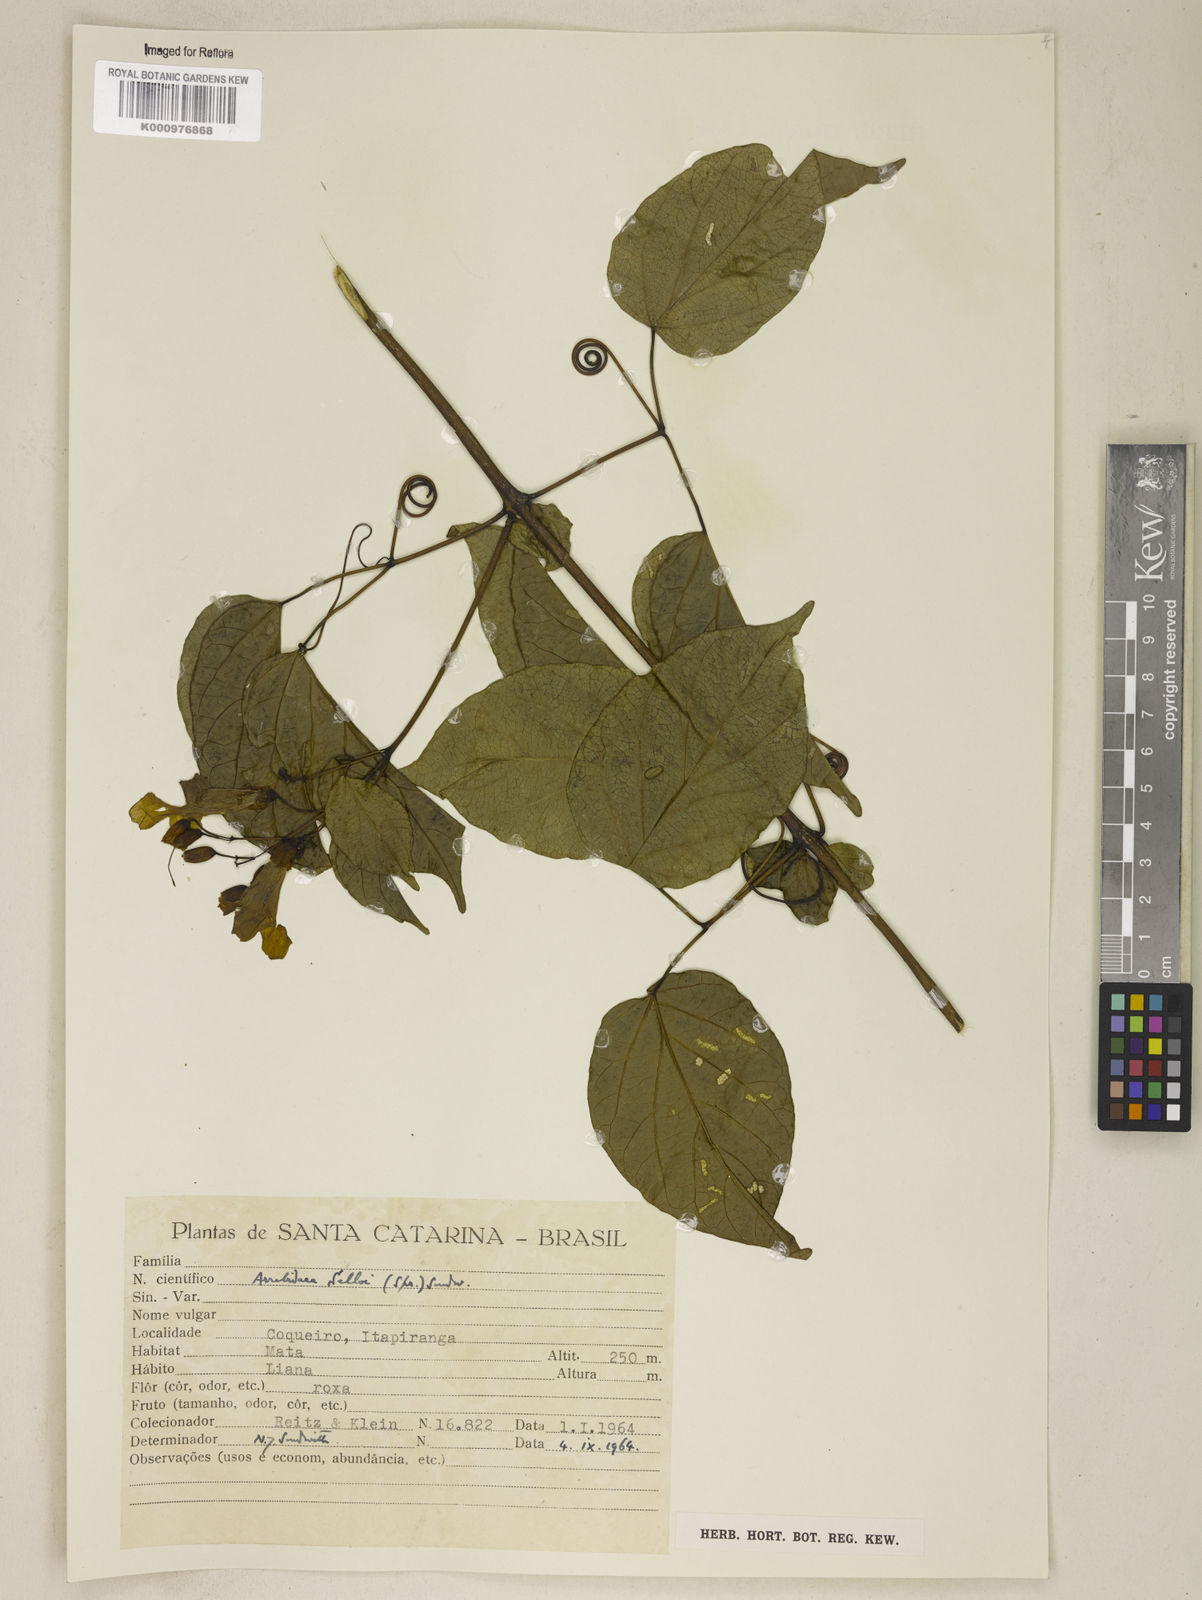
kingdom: Plantae
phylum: Tracheophyta
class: Magnoliopsida
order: Lamiales
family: Bignoniaceae
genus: Tanaecium
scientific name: Tanaecium selloi
